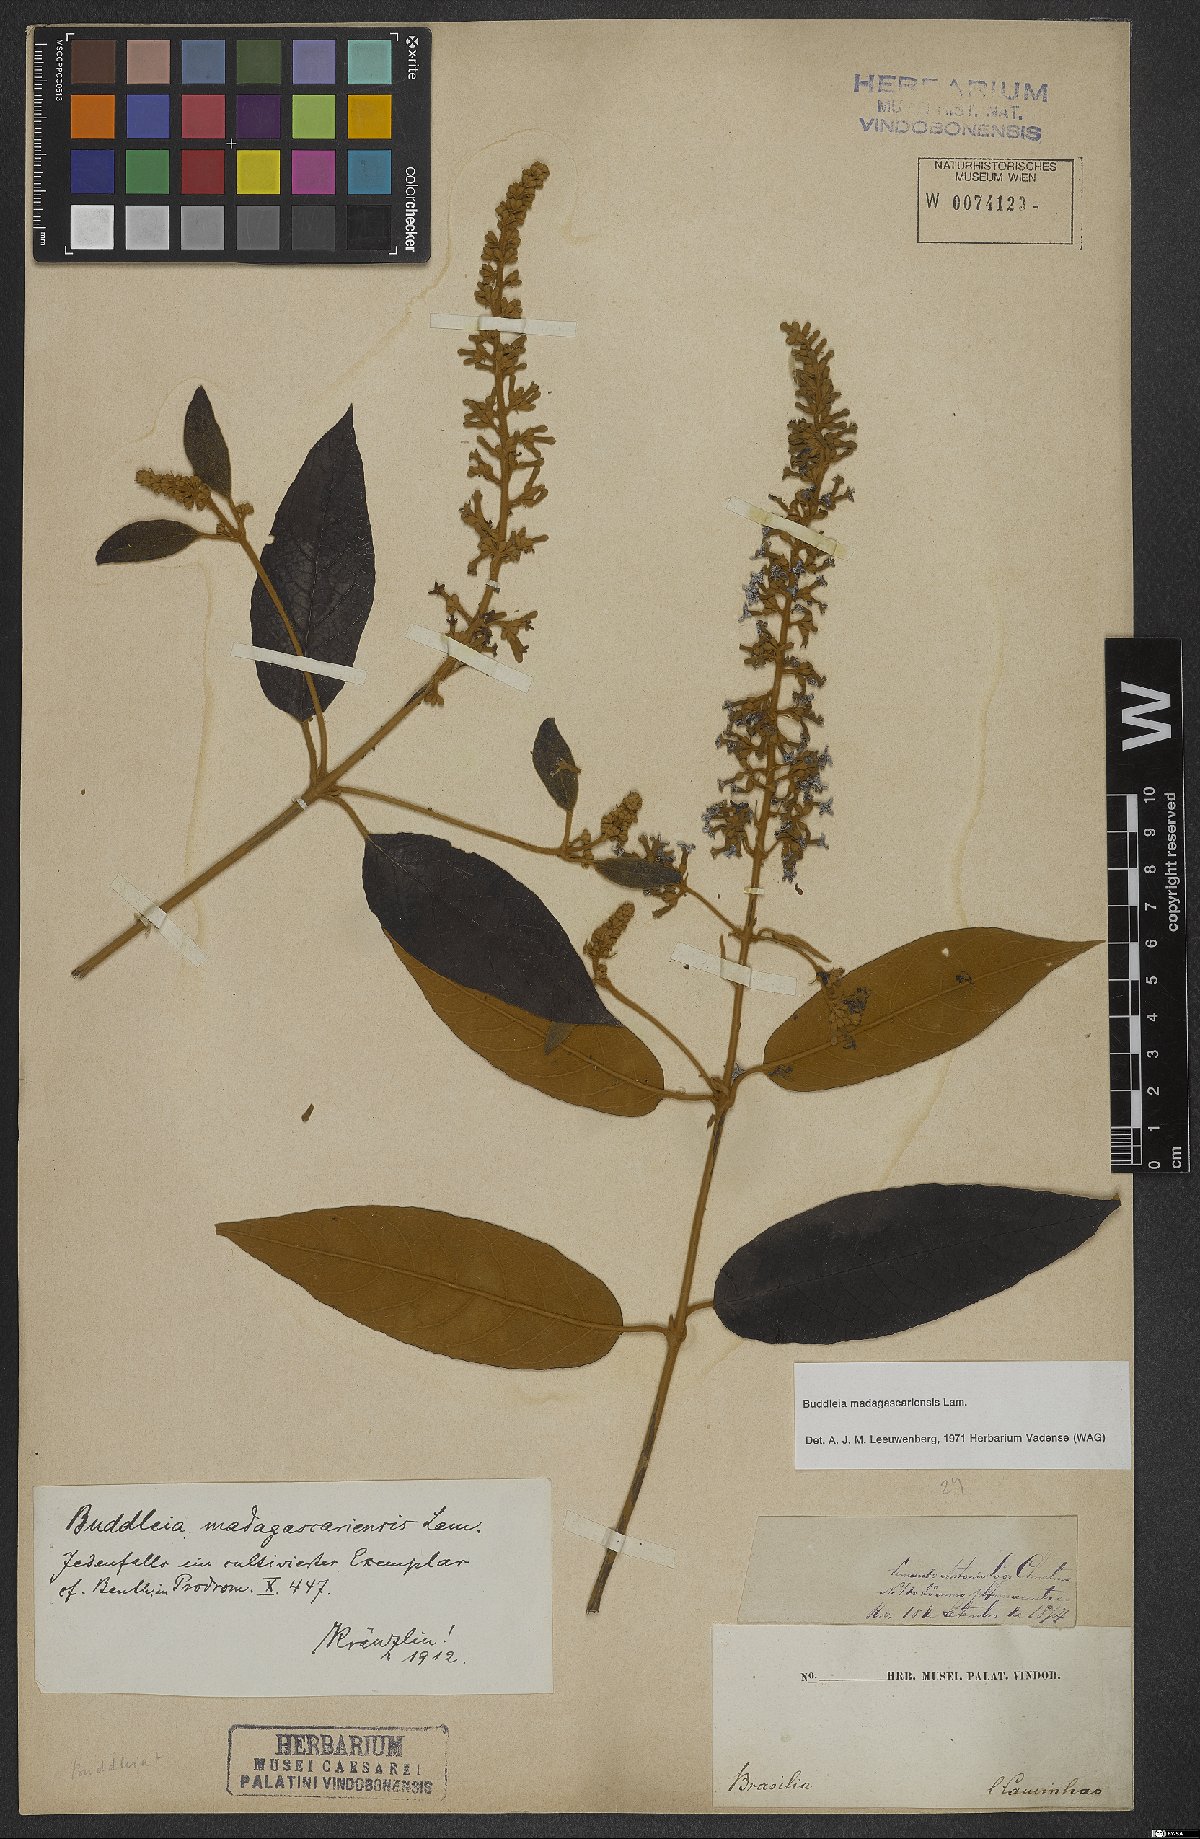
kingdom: Plantae
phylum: Tracheophyta
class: Magnoliopsida
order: Lamiales
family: Scrophulariaceae
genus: Buddleja
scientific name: Buddleja madagascariensis
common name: Smokebush
